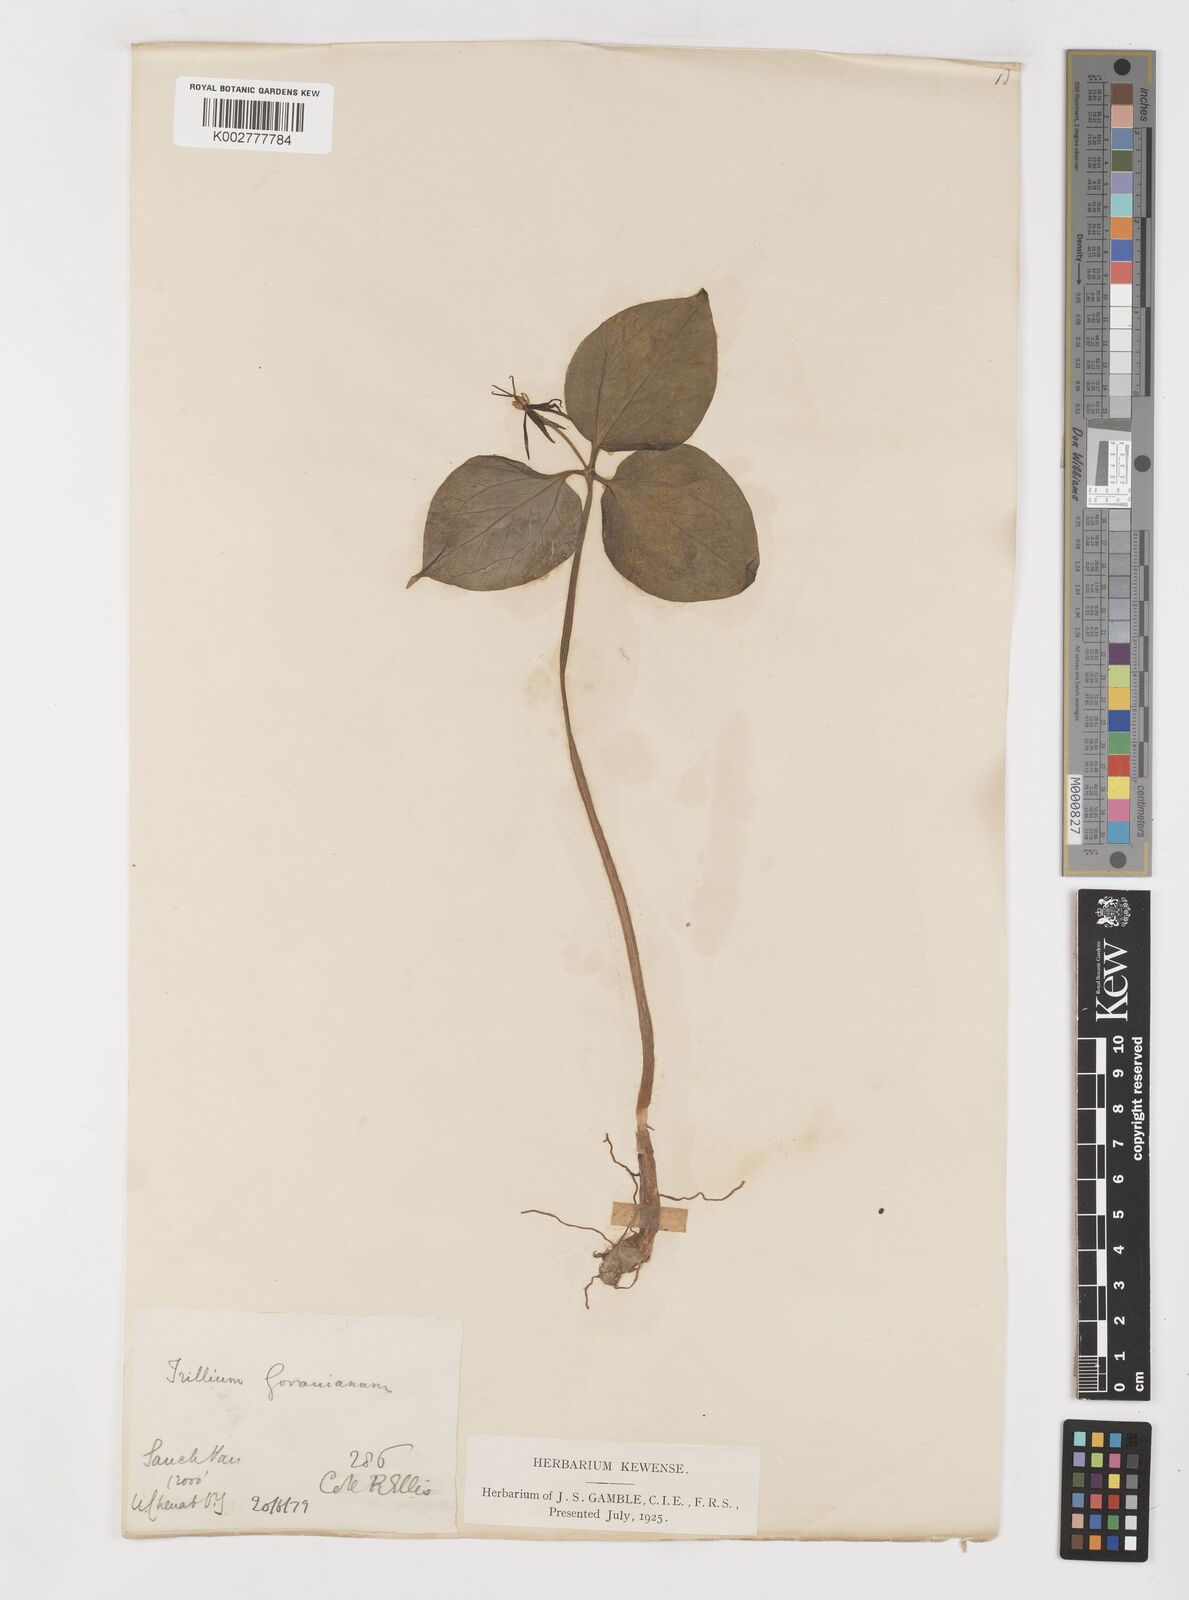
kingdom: Plantae
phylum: Tracheophyta
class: Liliopsida
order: Liliales
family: Melanthiaceae
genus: Trillium
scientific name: Trillium govanianum
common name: Himalayan trillium
